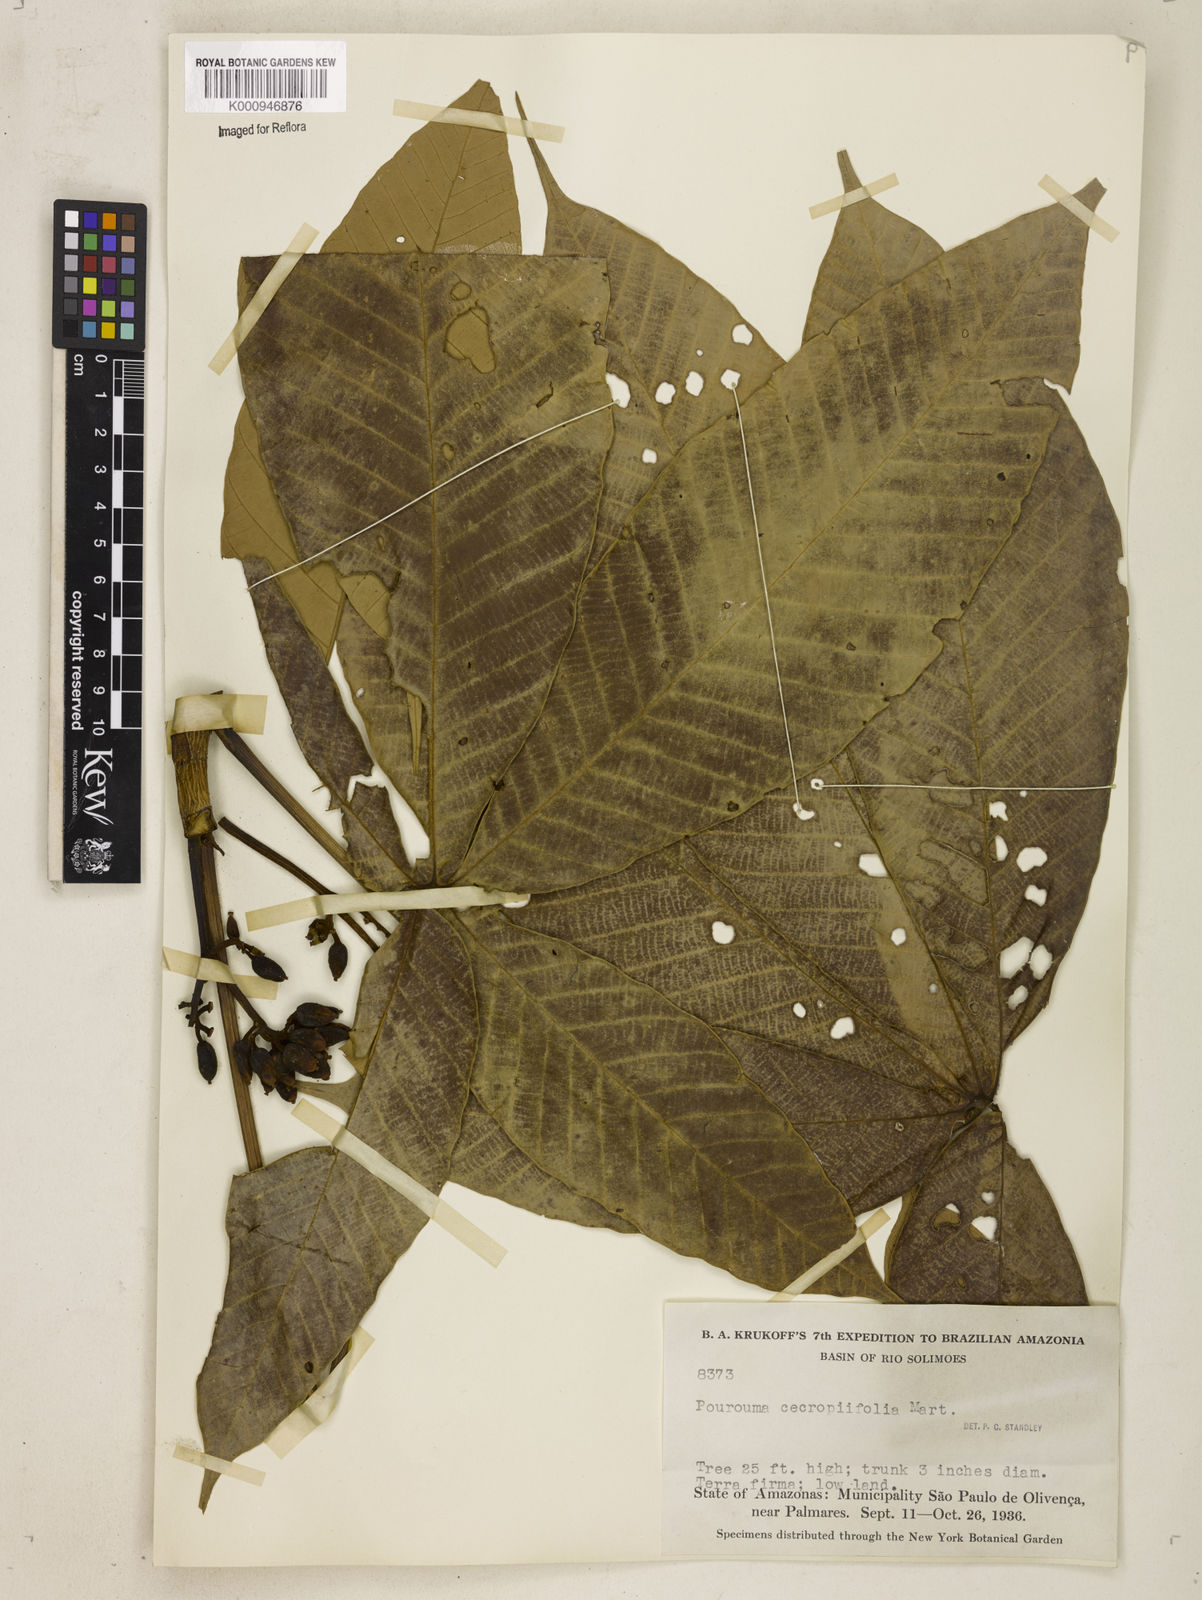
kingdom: Plantae
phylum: Tracheophyta
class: Magnoliopsida
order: Rosales
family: Urticaceae
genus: Pourouma
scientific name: Pourouma cecropiifolia
